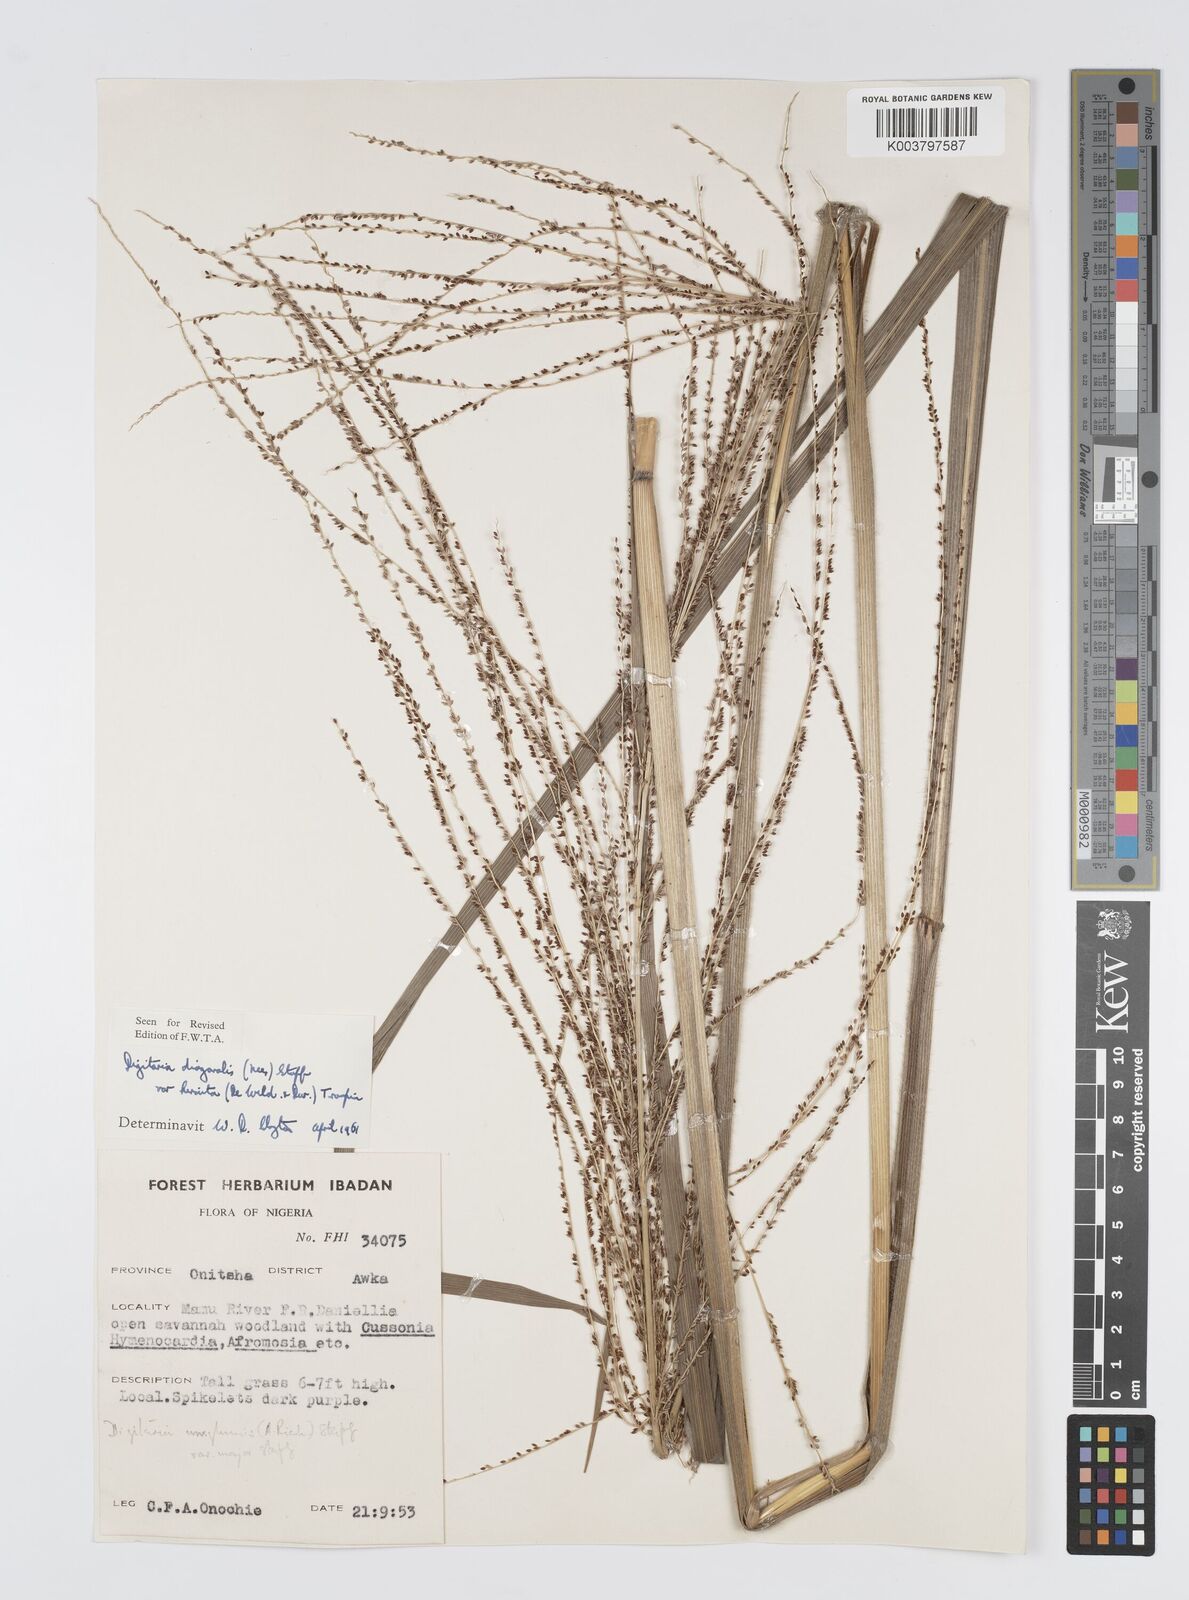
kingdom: Plantae
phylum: Tracheophyta
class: Liliopsida
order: Poales
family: Poaceae
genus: Digitaria
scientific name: Digitaria diagonalis
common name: Brown-seed finger grass
